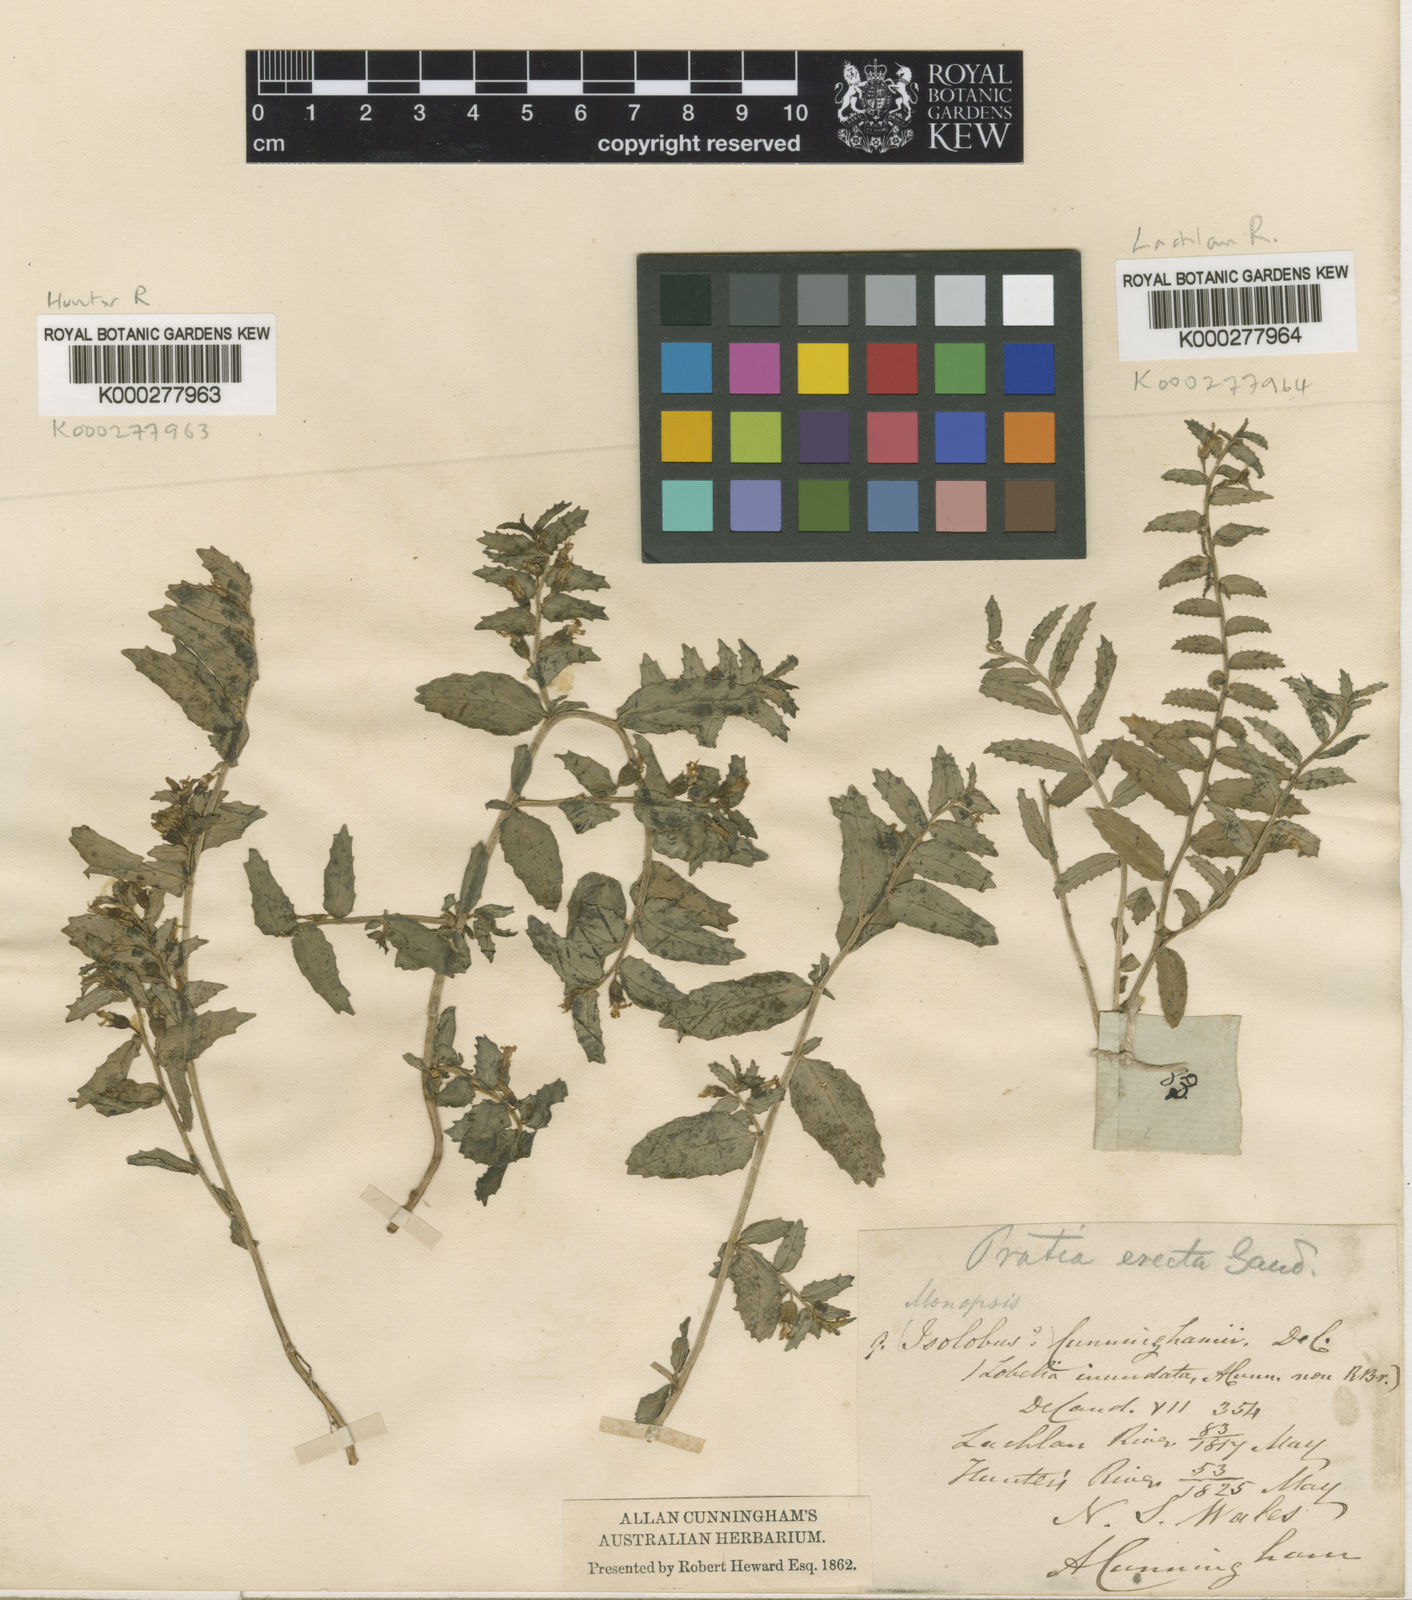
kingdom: Plantae
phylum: Tracheophyta
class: Magnoliopsida
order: Asterales
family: Campanulaceae
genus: Lobelia
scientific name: Lobelia concolor
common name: Poison pratia
